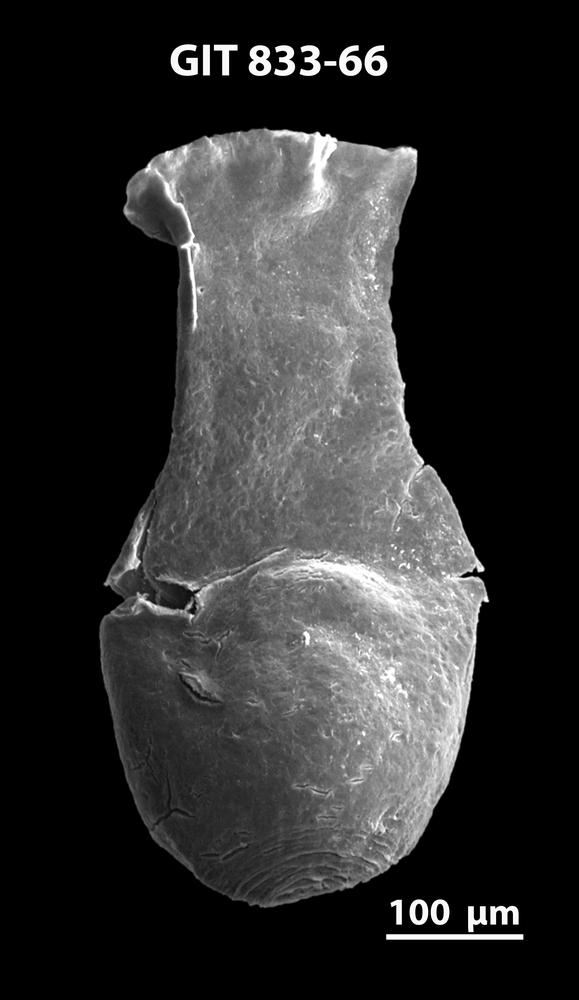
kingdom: Animalia
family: Lagenochitinidae
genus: Lagenochitina
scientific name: Lagenochitina megaesthonica
